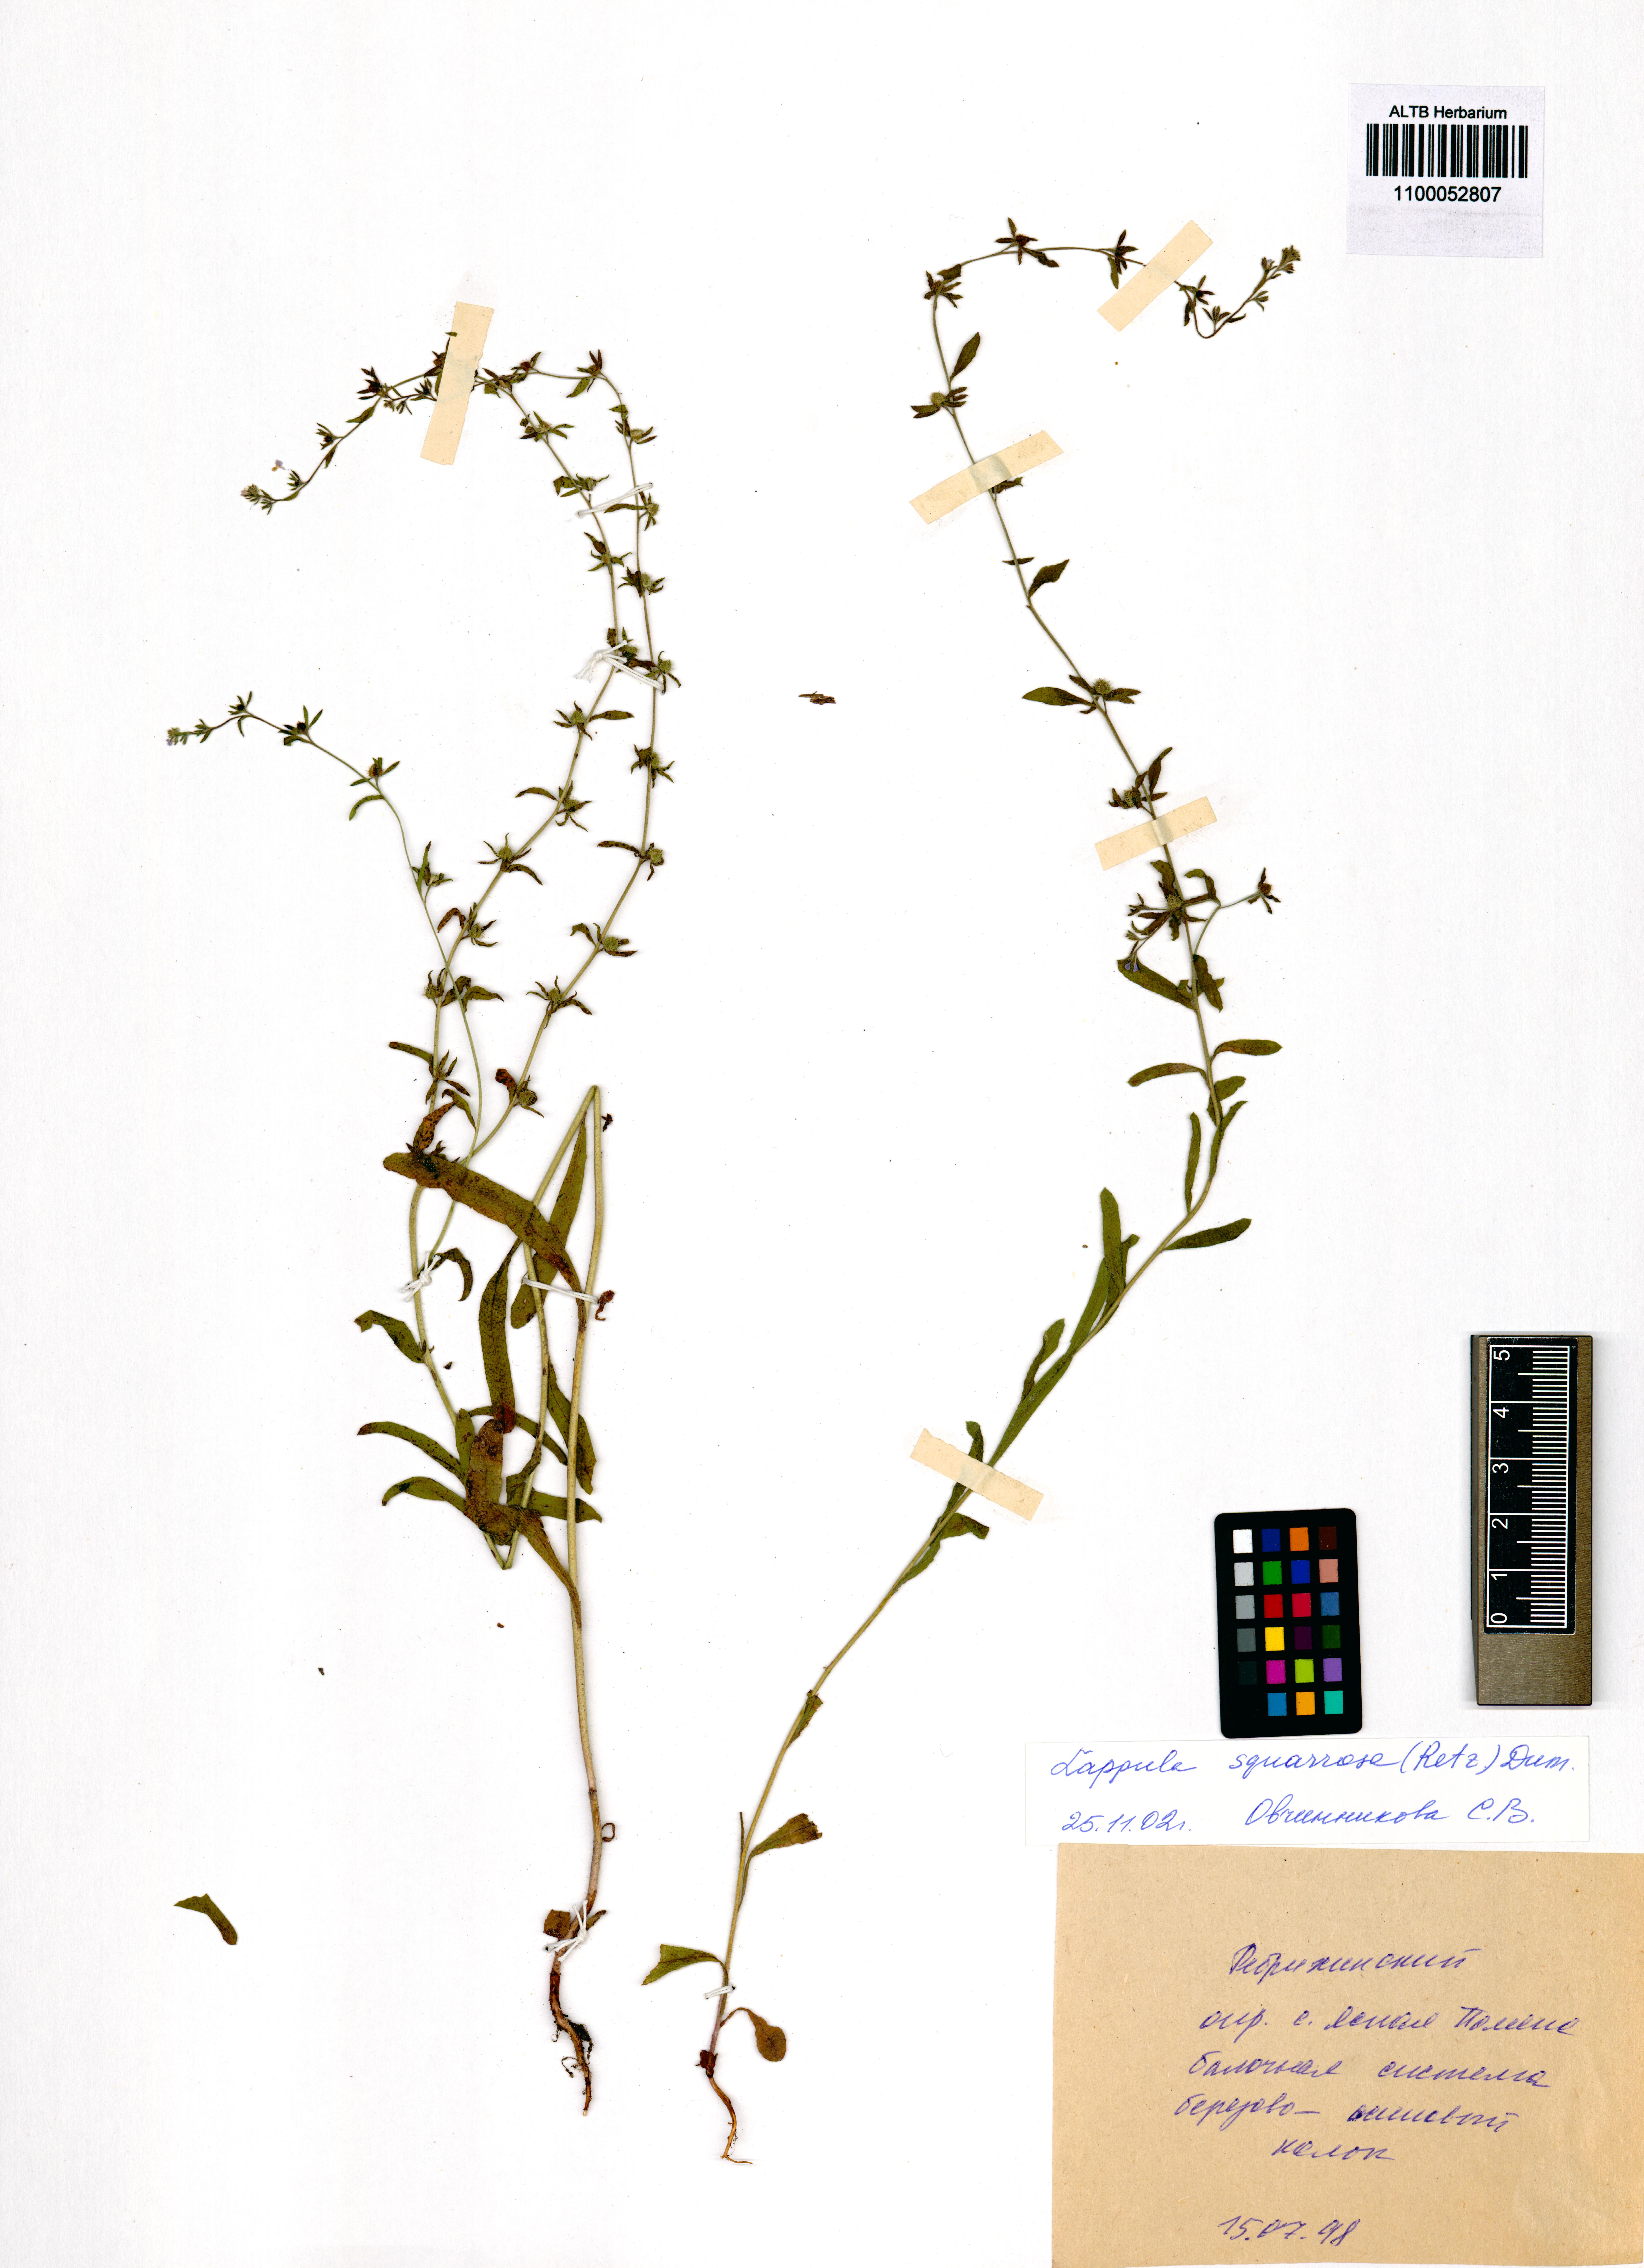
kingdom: Plantae
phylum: Tracheophyta
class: Magnoliopsida
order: Boraginales
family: Boraginaceae
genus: Lappula
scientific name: Lappula squarrosa
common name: European stickseed
